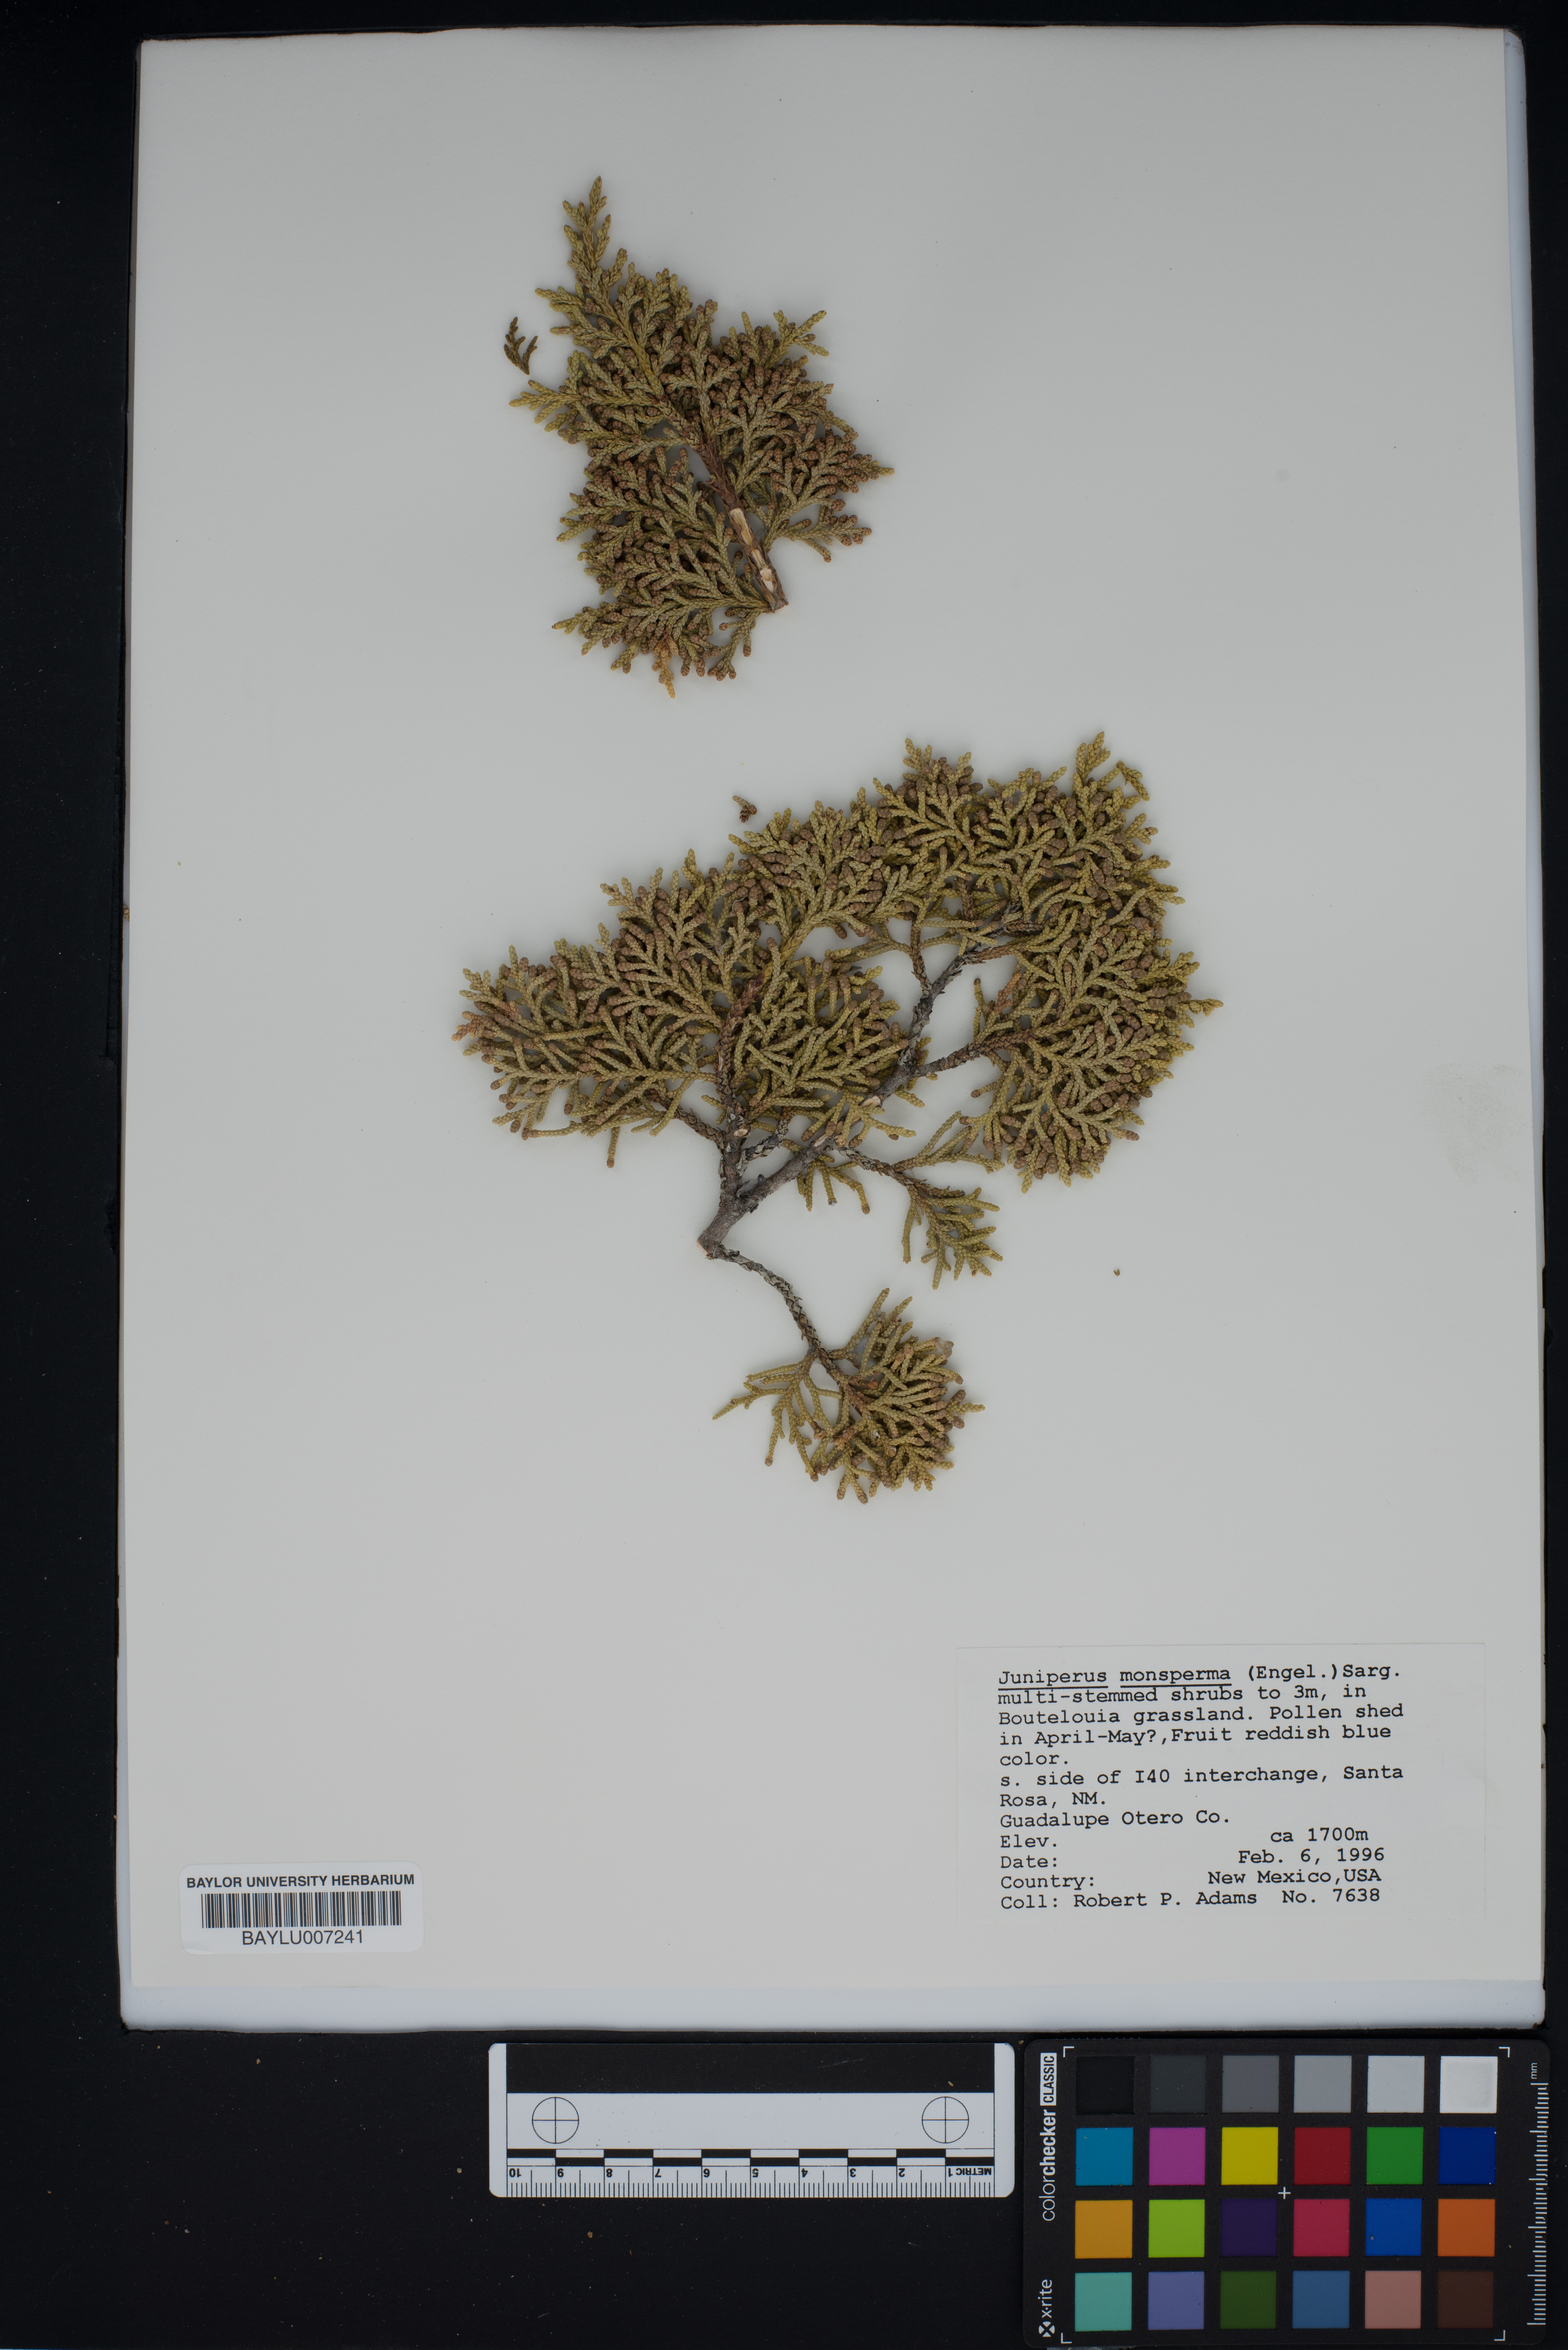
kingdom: Plantae
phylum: Tracheophyta
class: Pinopsida
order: Pinales
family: Cupressaceae
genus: Juniperus
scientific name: Juniperus monosperma
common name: One-seed juniper
